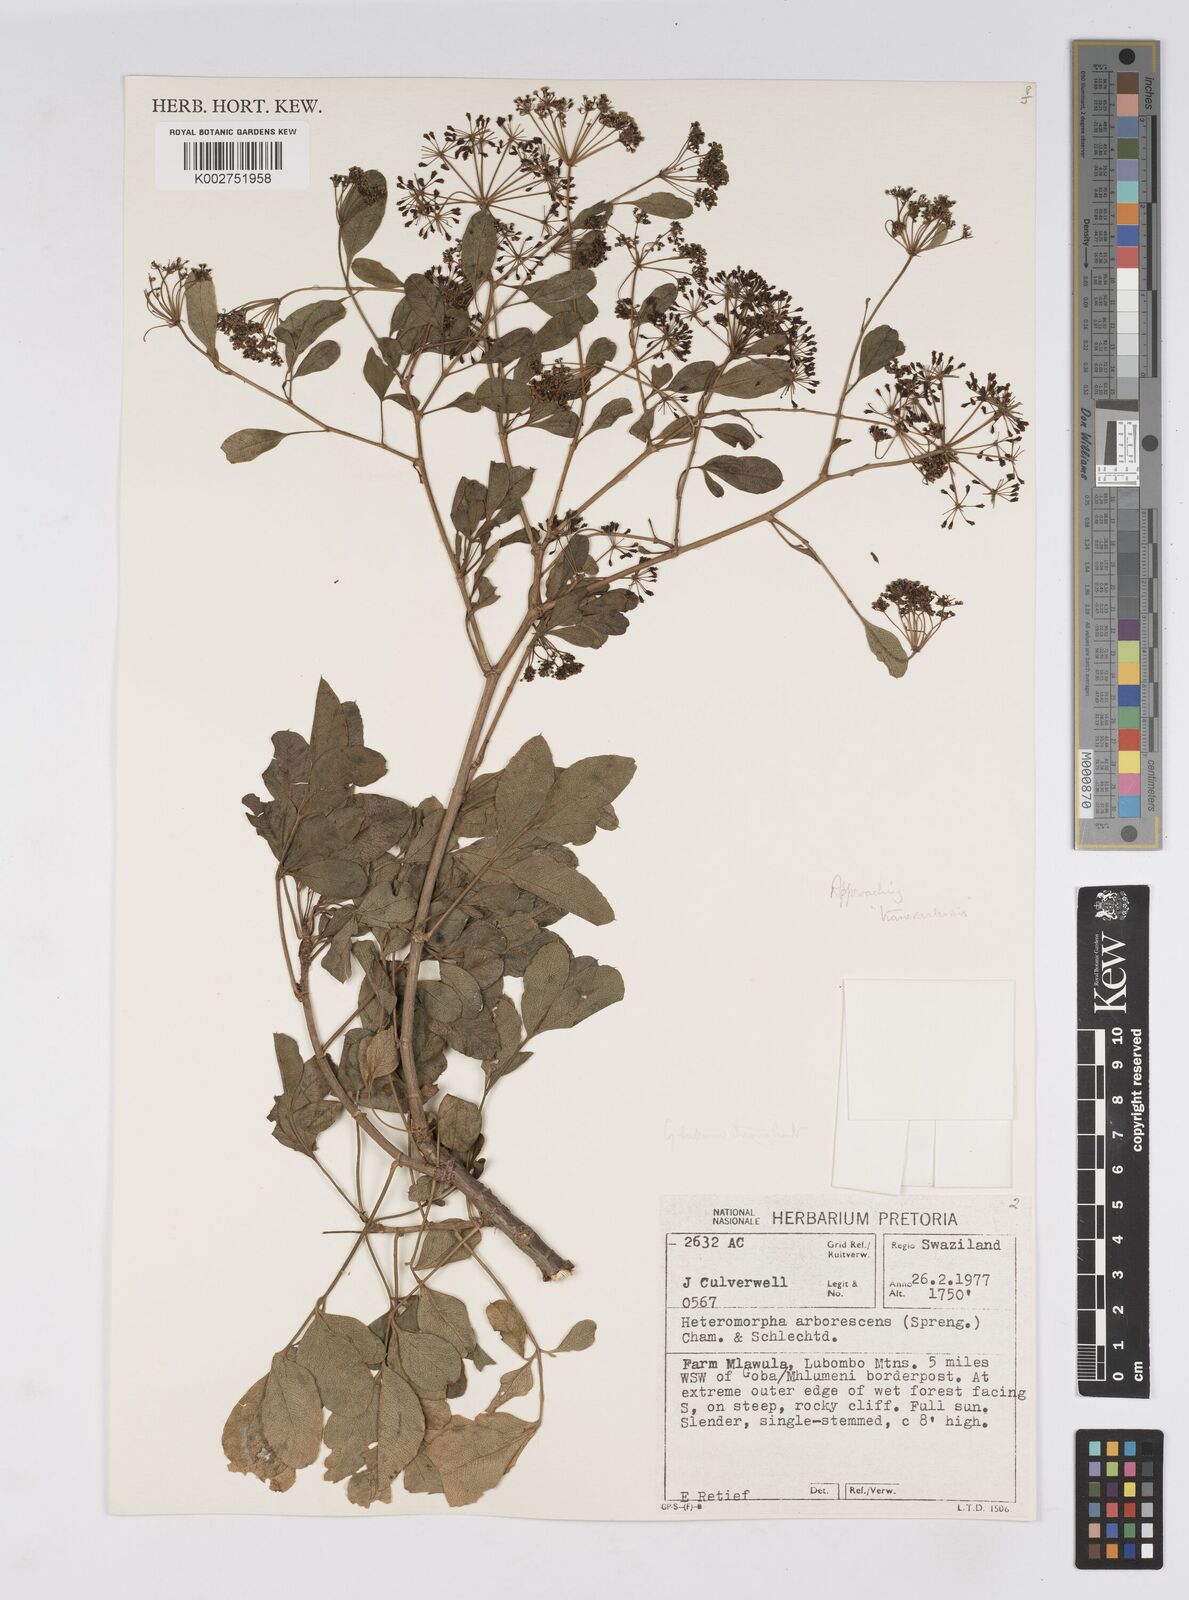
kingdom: Plantae
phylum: Tracheophyta
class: Magnoliopsida
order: Apiales
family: Apiaceae
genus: Heteromorpha
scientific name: Heteromorpha stenophylla
